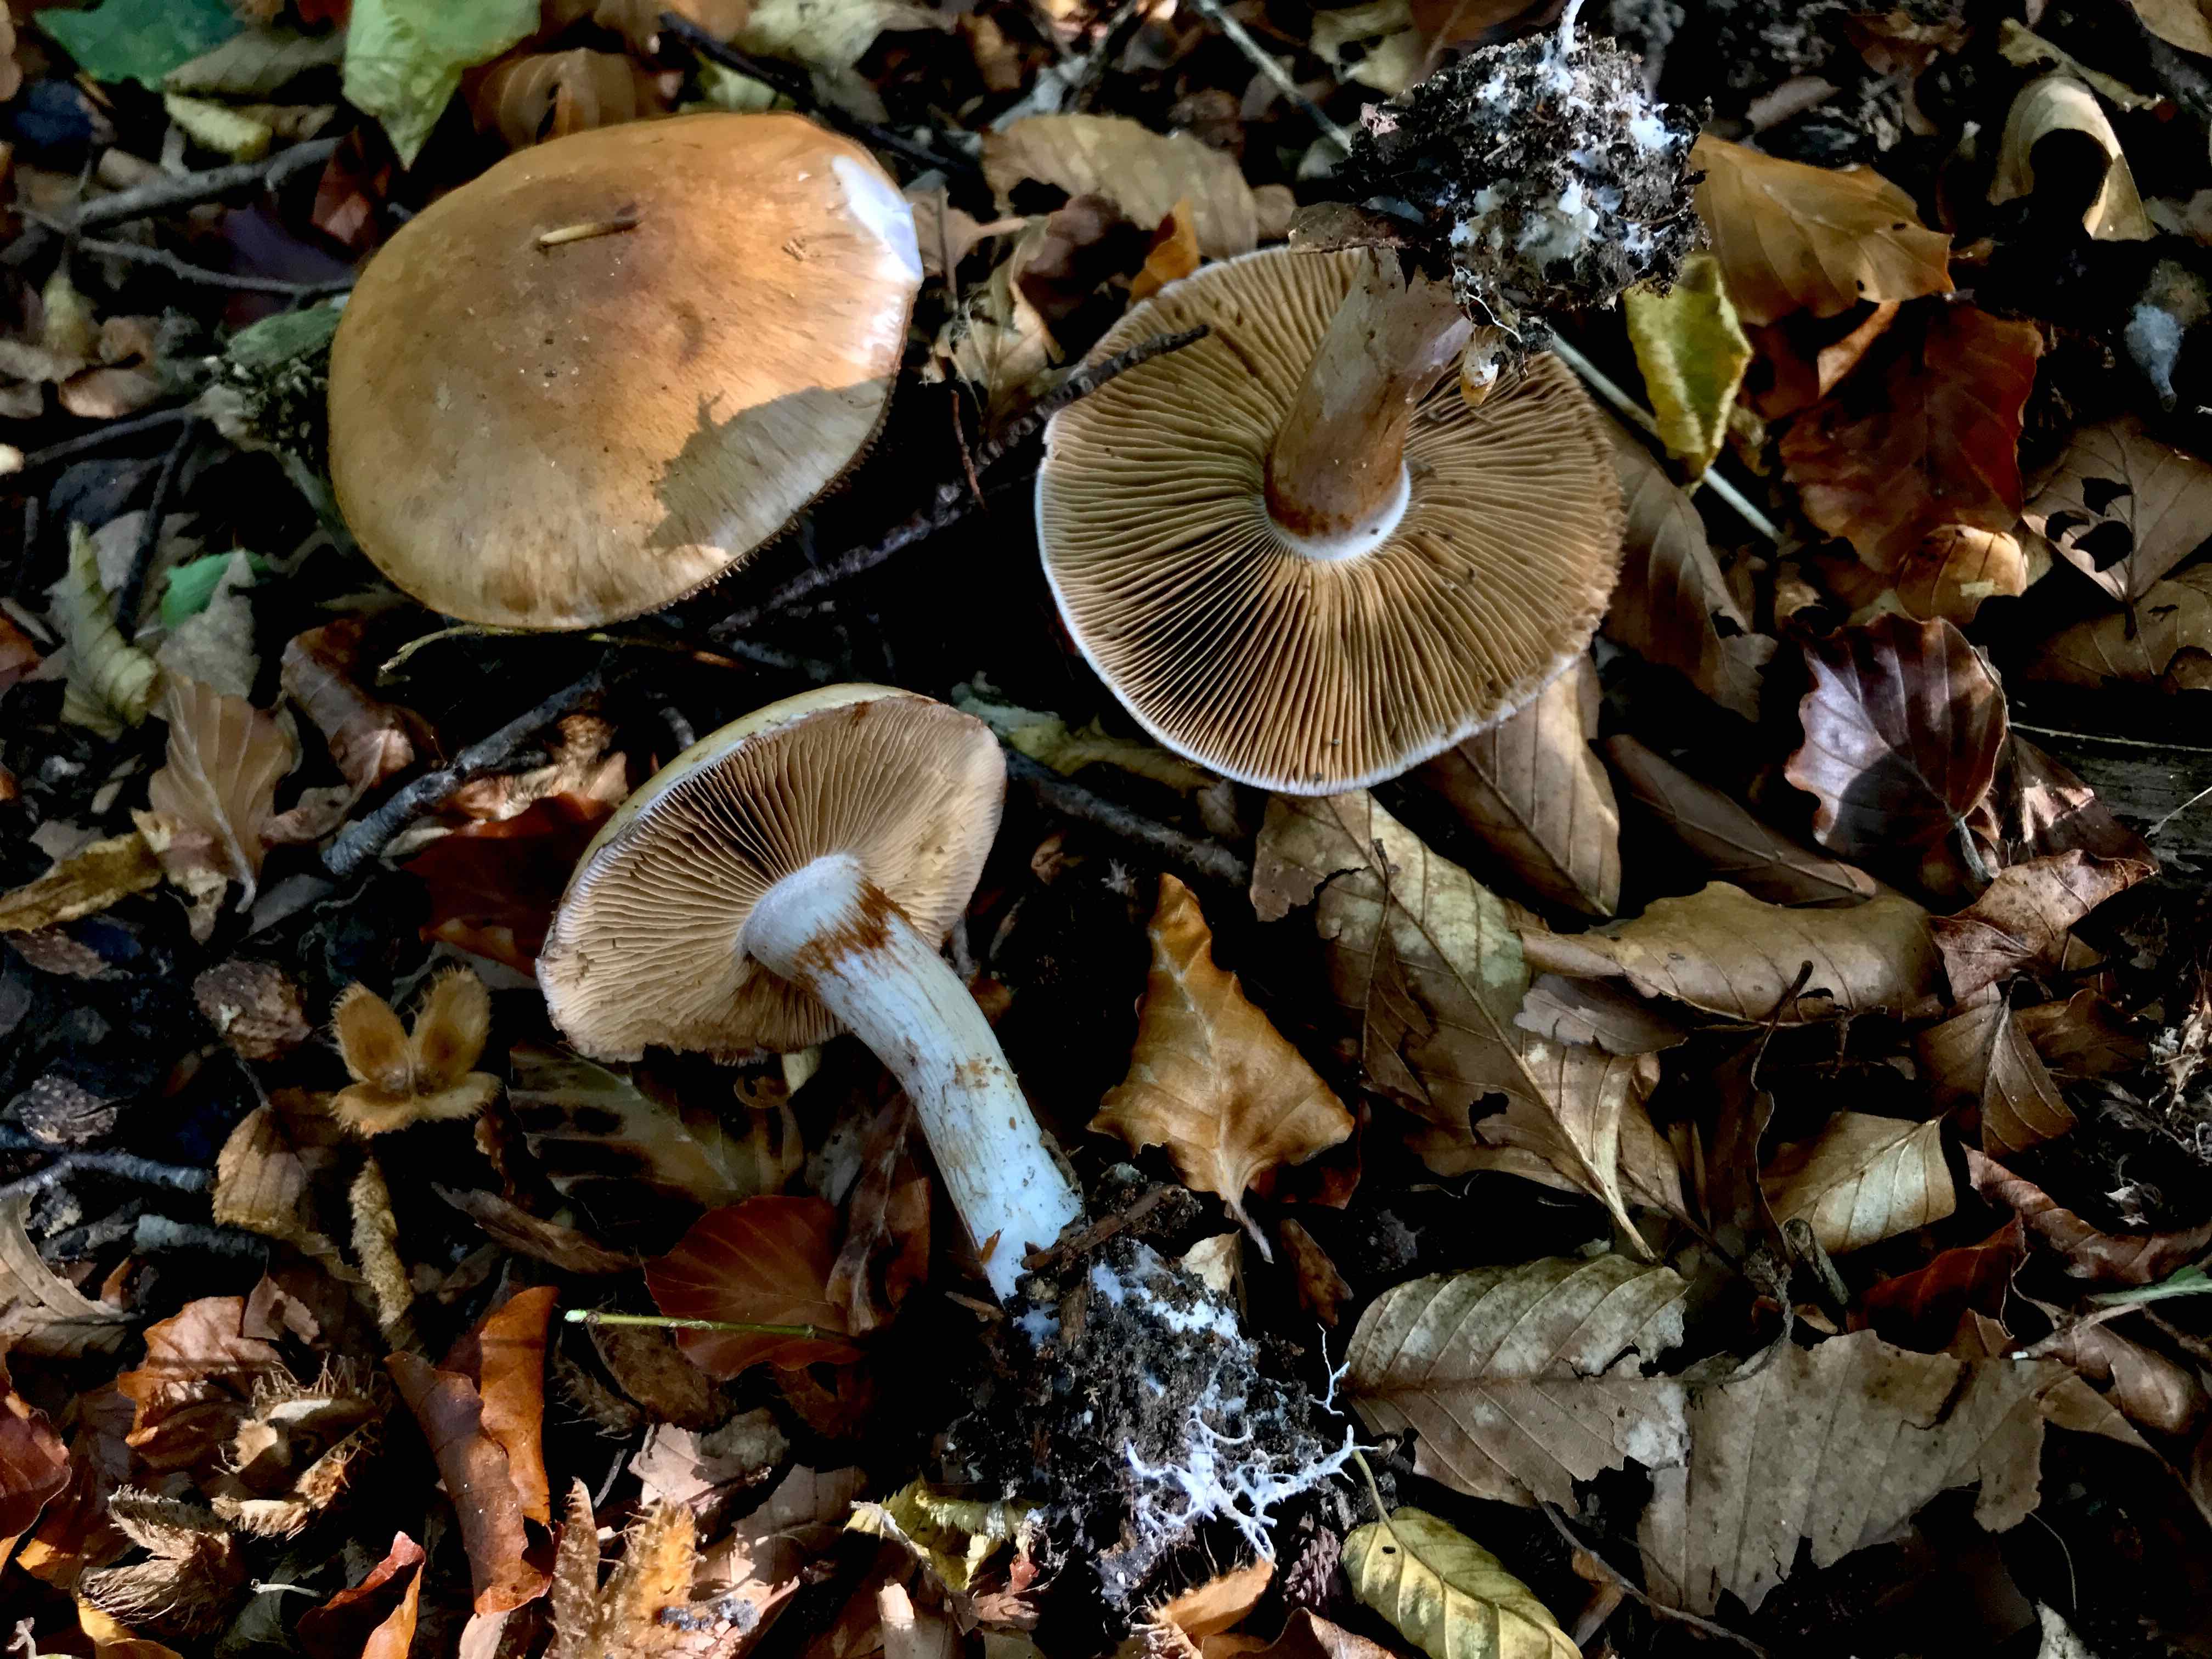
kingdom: Fungi
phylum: Basidiomycota
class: Agaricomycetes
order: Agaricales
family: Cortinariaceae
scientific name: Cortinariaceae
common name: slørhatfamilien
